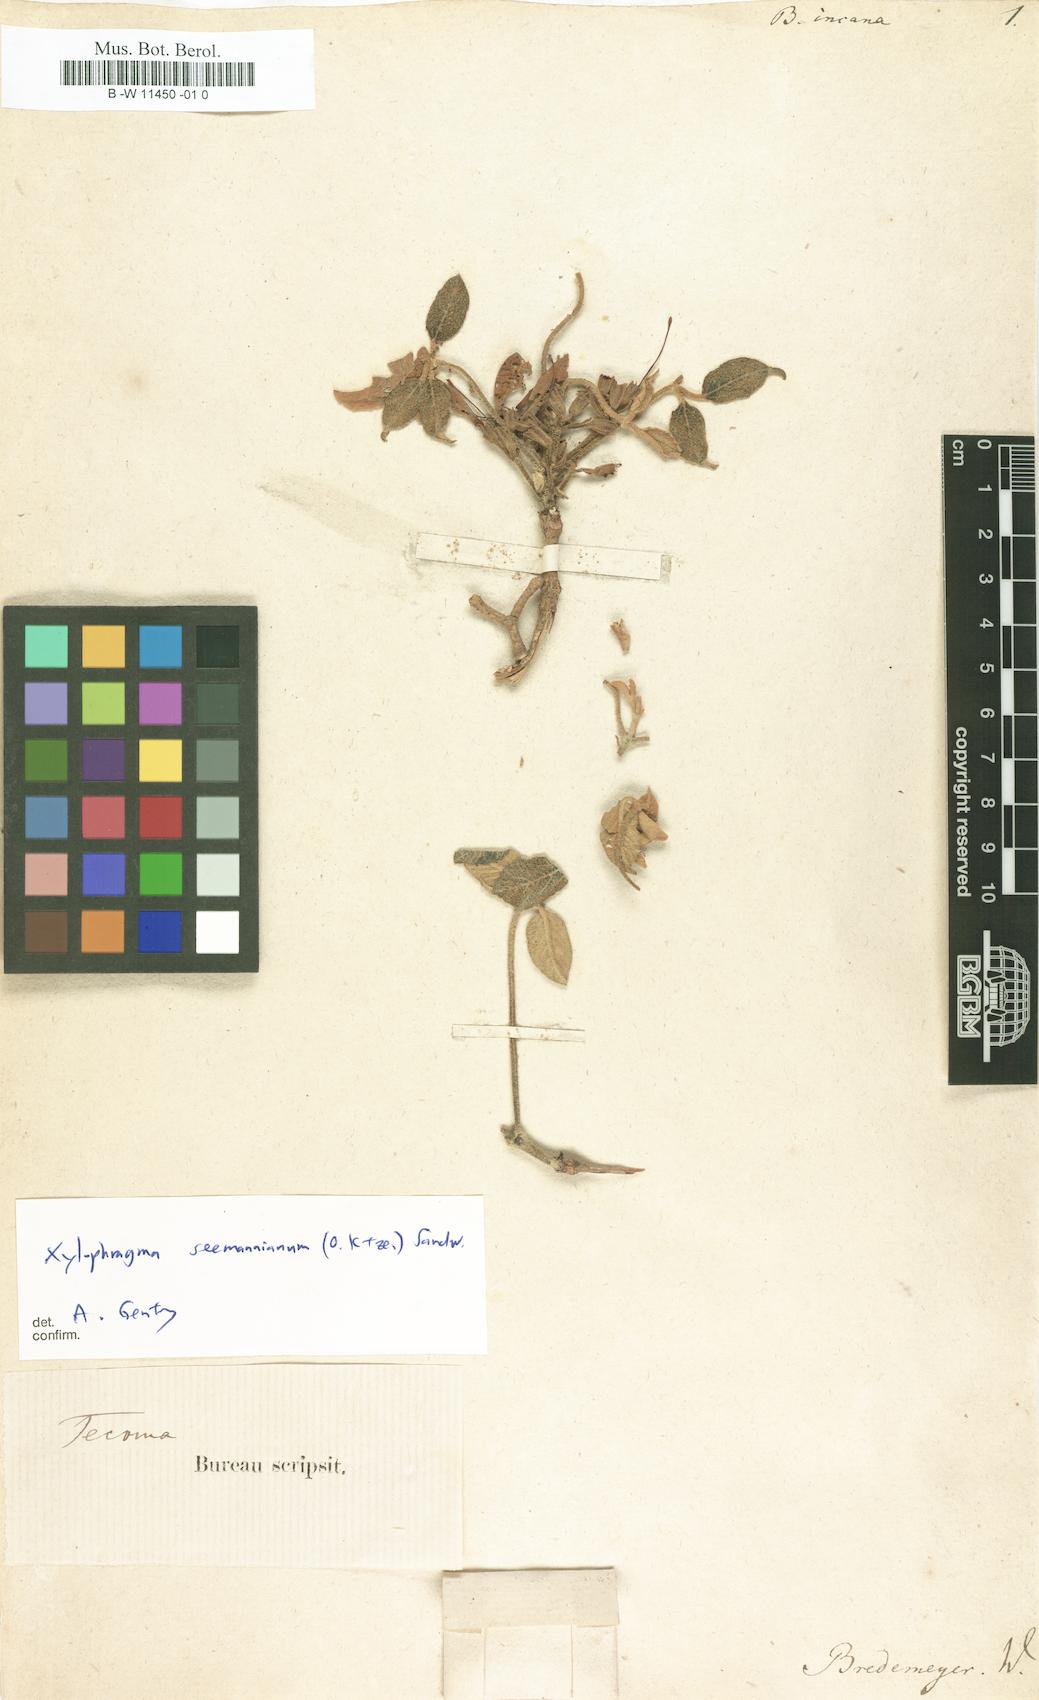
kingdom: Plantae
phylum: Tracheophyta
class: Magnoliopsida
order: Lamiales
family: Bignoniaceae
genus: Tecoma
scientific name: Tecoma stans
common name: Yellow trumpetbush
